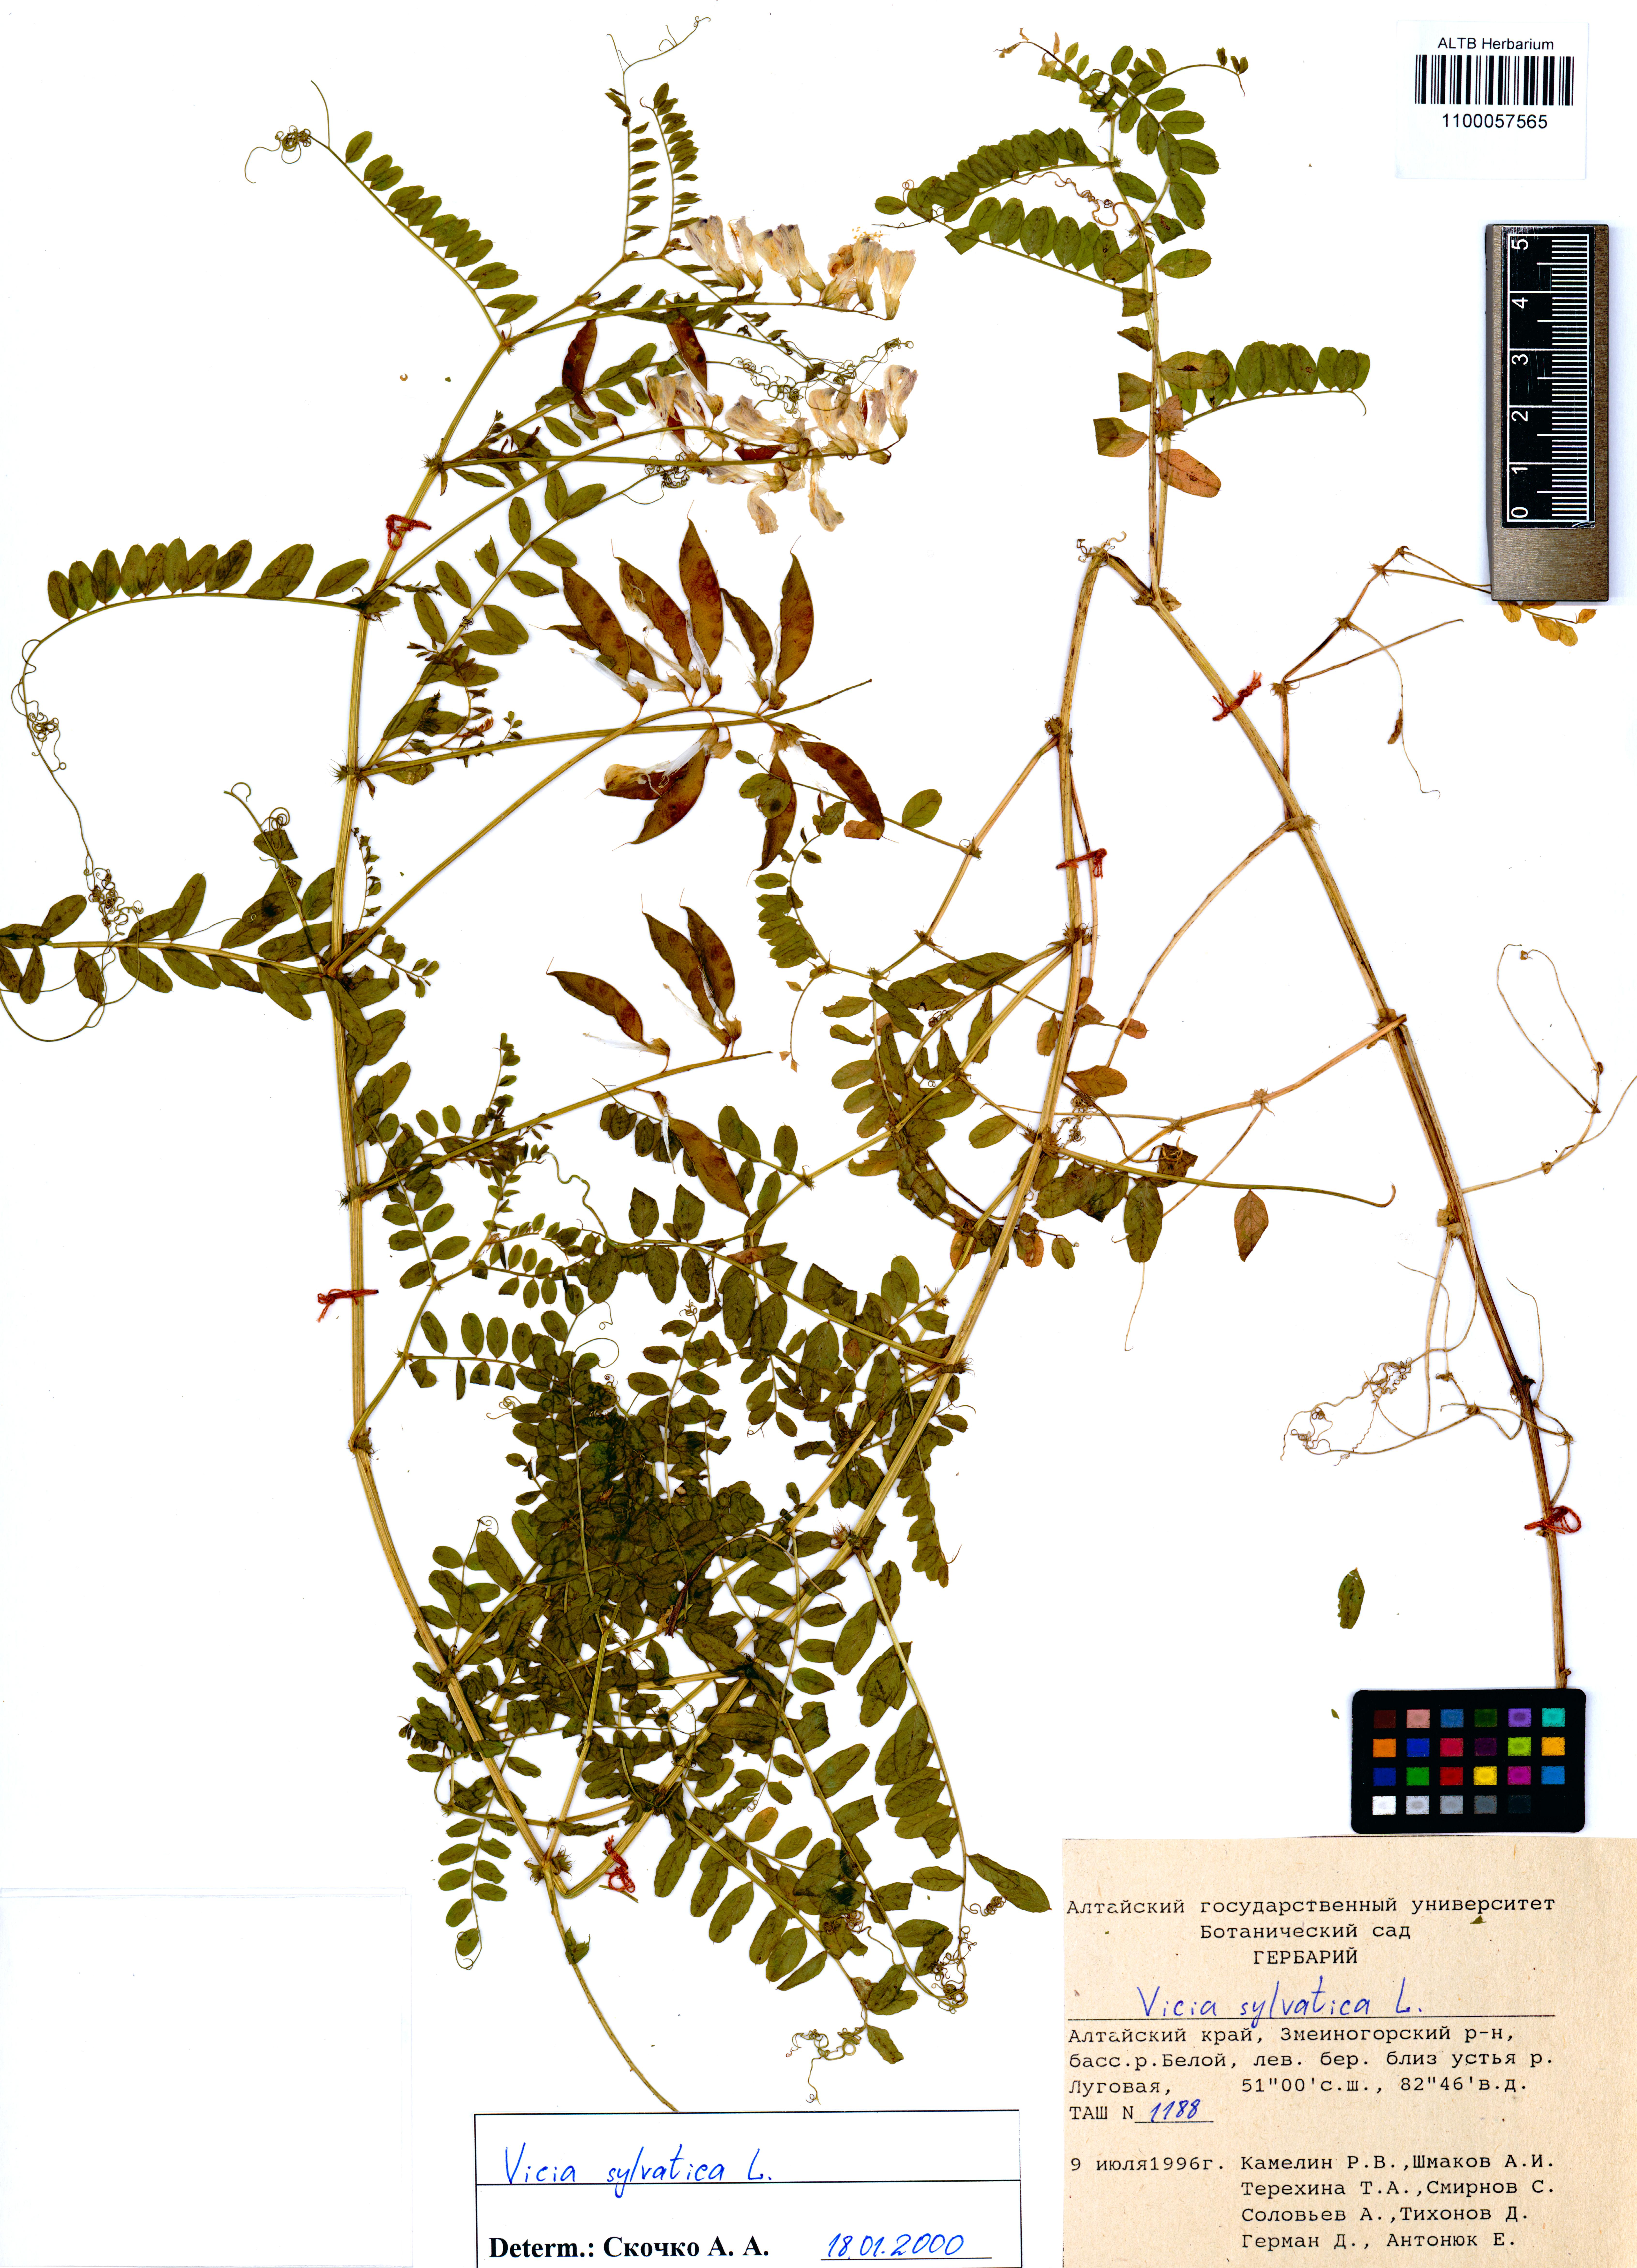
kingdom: Plantae
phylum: Tracheophyta
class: Magnoliopsida
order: Fabales
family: Fabaceae
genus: Vicia
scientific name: Vicia sylvatica
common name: Wood vetch
